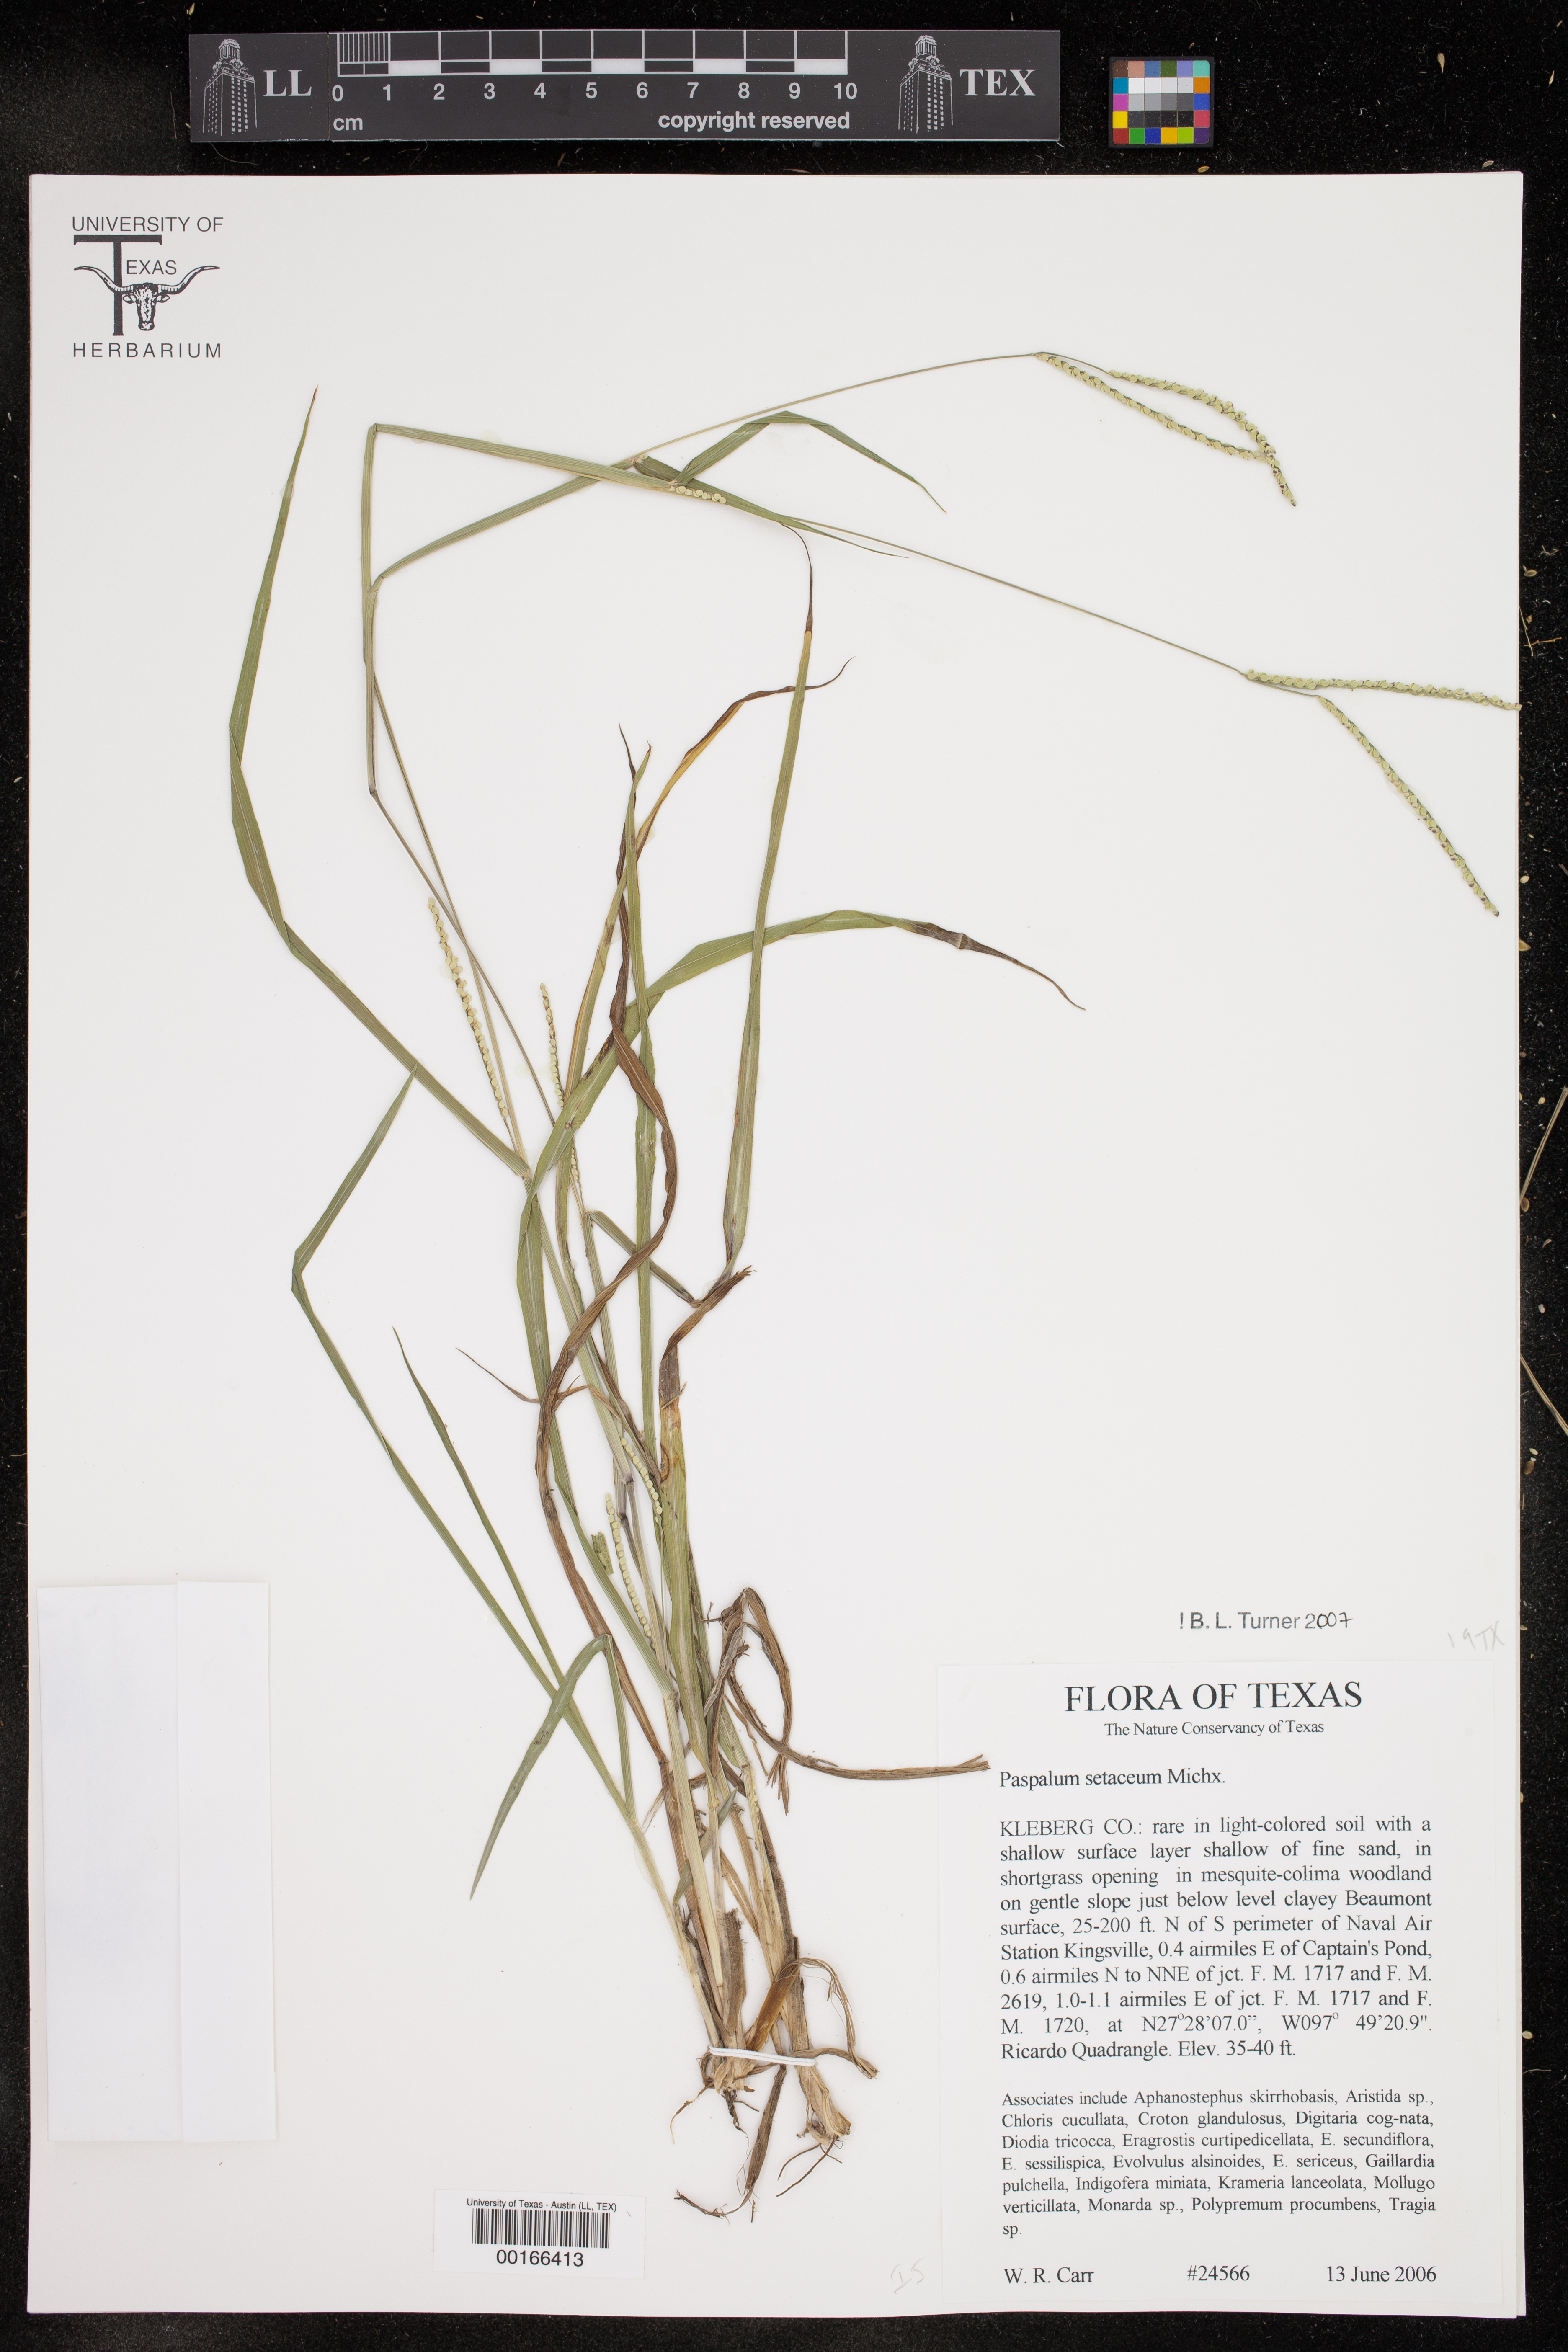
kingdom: Plantae
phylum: Tracheophyta
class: Liliopsida
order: Poales
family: Poaceae
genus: Paspalum
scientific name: Paspalum setaceum
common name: Slender paspalum
